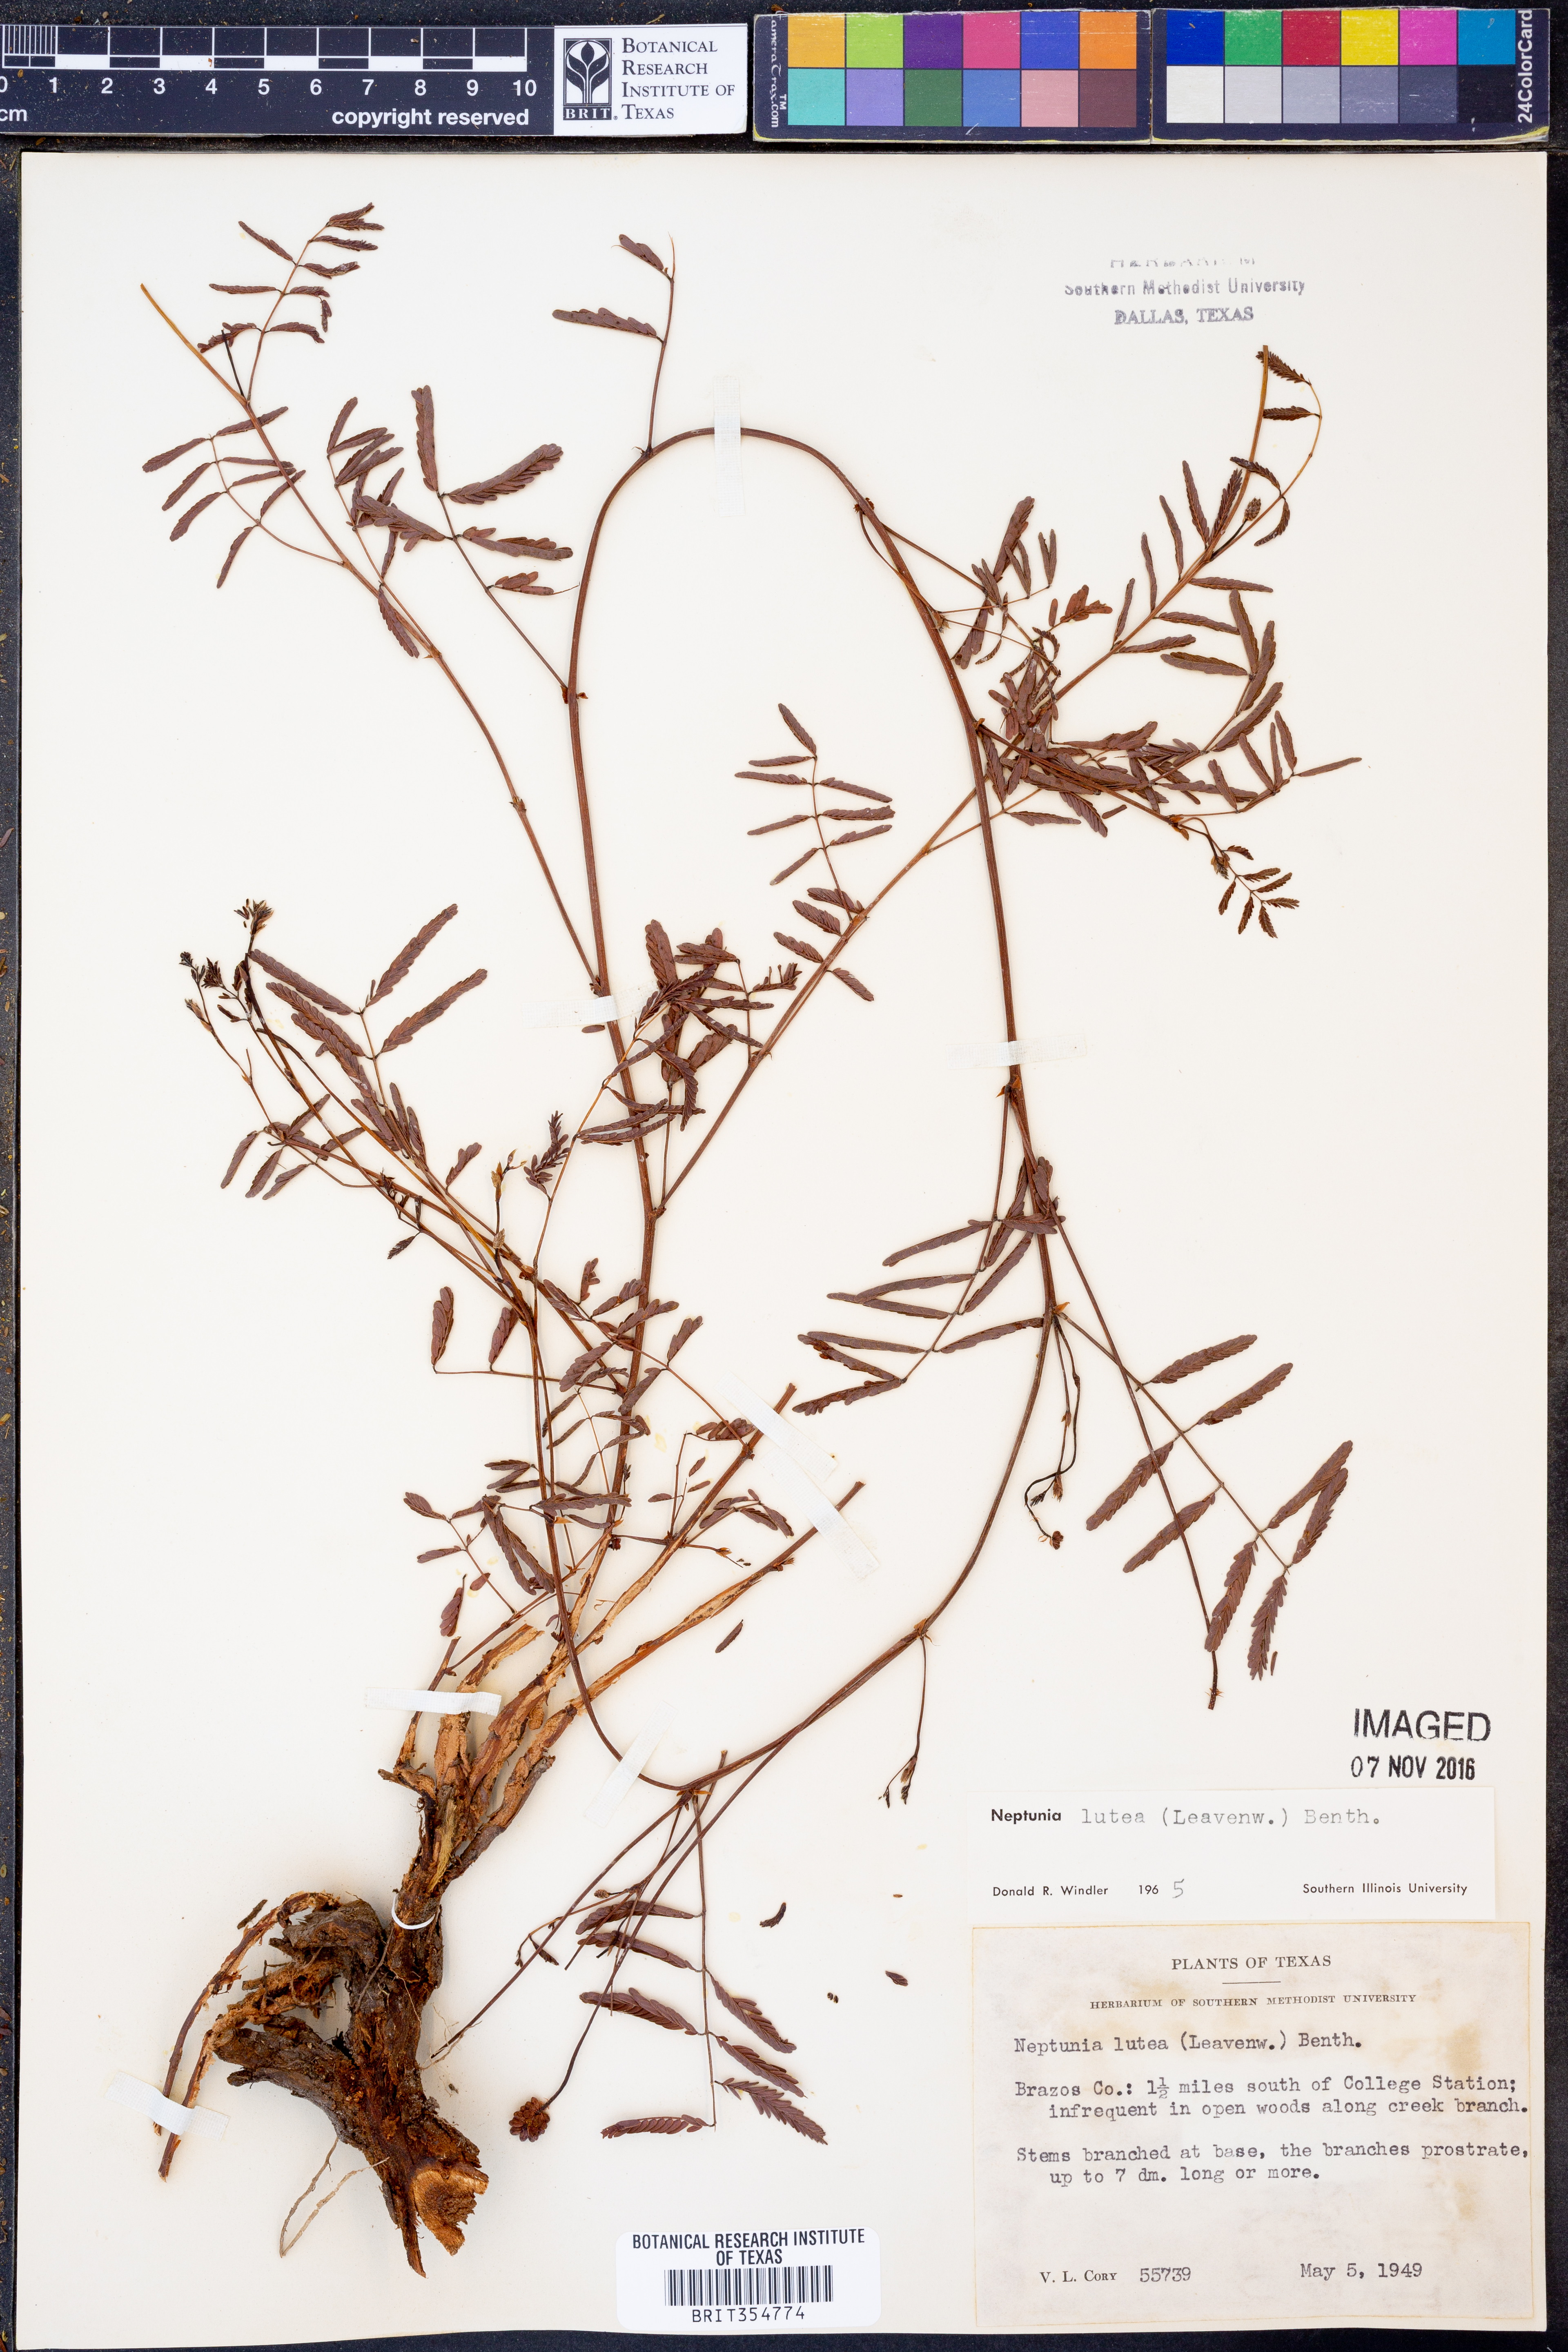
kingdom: Plantae
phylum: Tracheophyta
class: Magnoliopsida
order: Fabales
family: Fabaceae
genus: Neptunia
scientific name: Neptunia lutea
